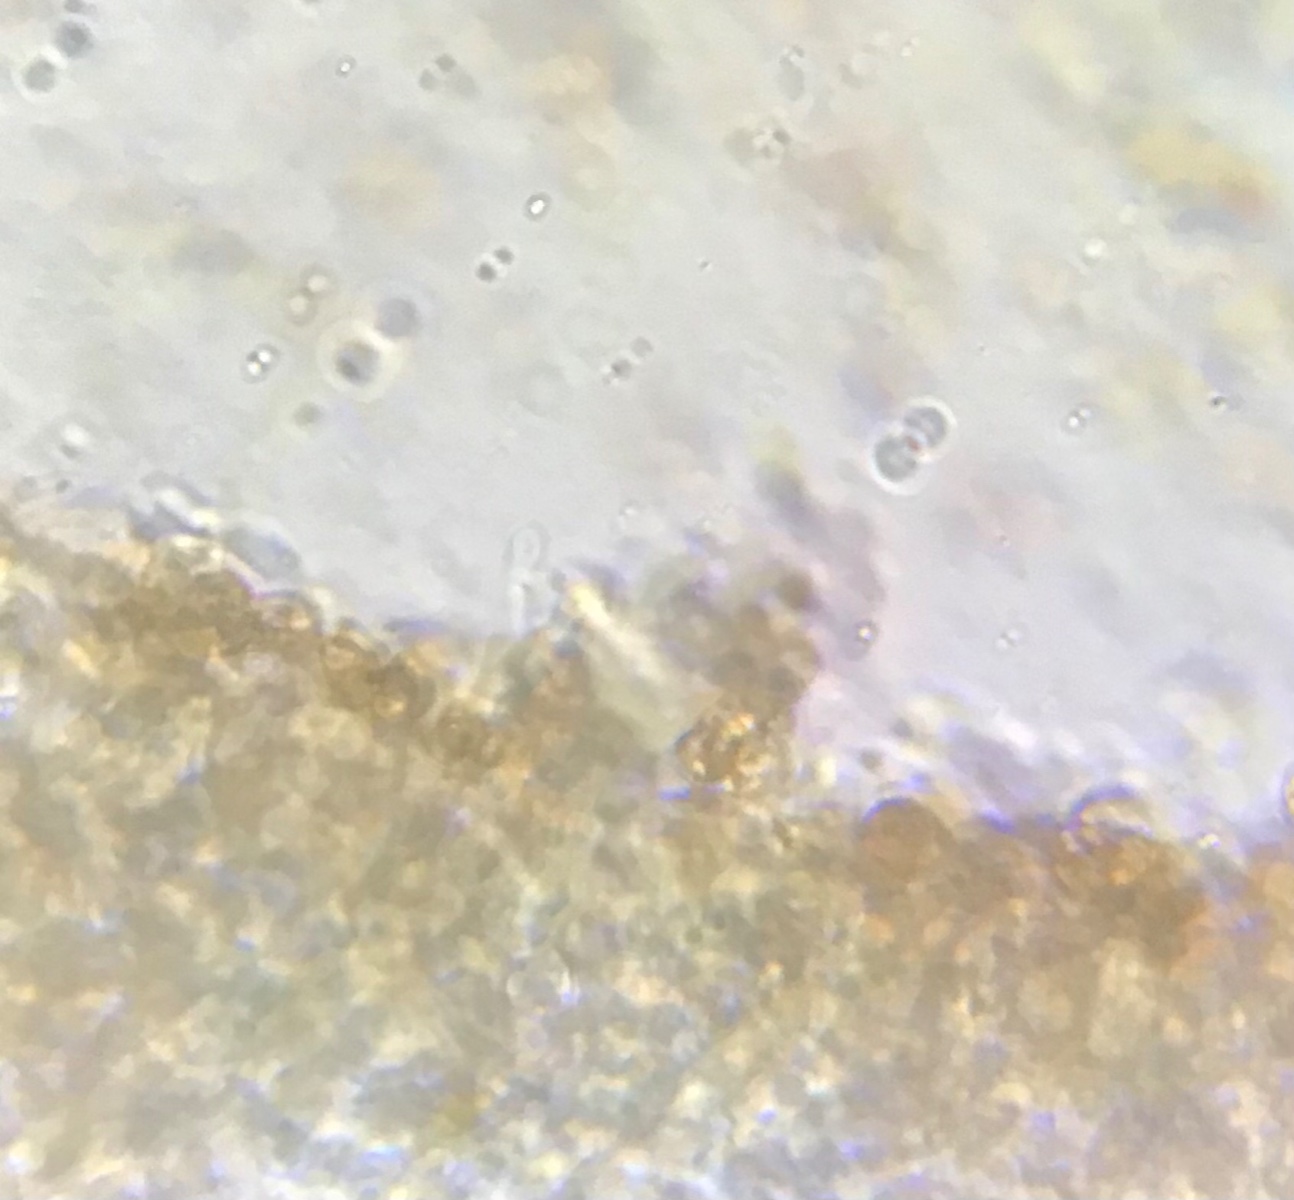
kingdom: Fungi
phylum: Basidiomycota
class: Agaricomycetes
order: Agaricales
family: Hymenogastraceae
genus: Galerina
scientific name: Galerina graminea
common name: plæne-hjelmhat
